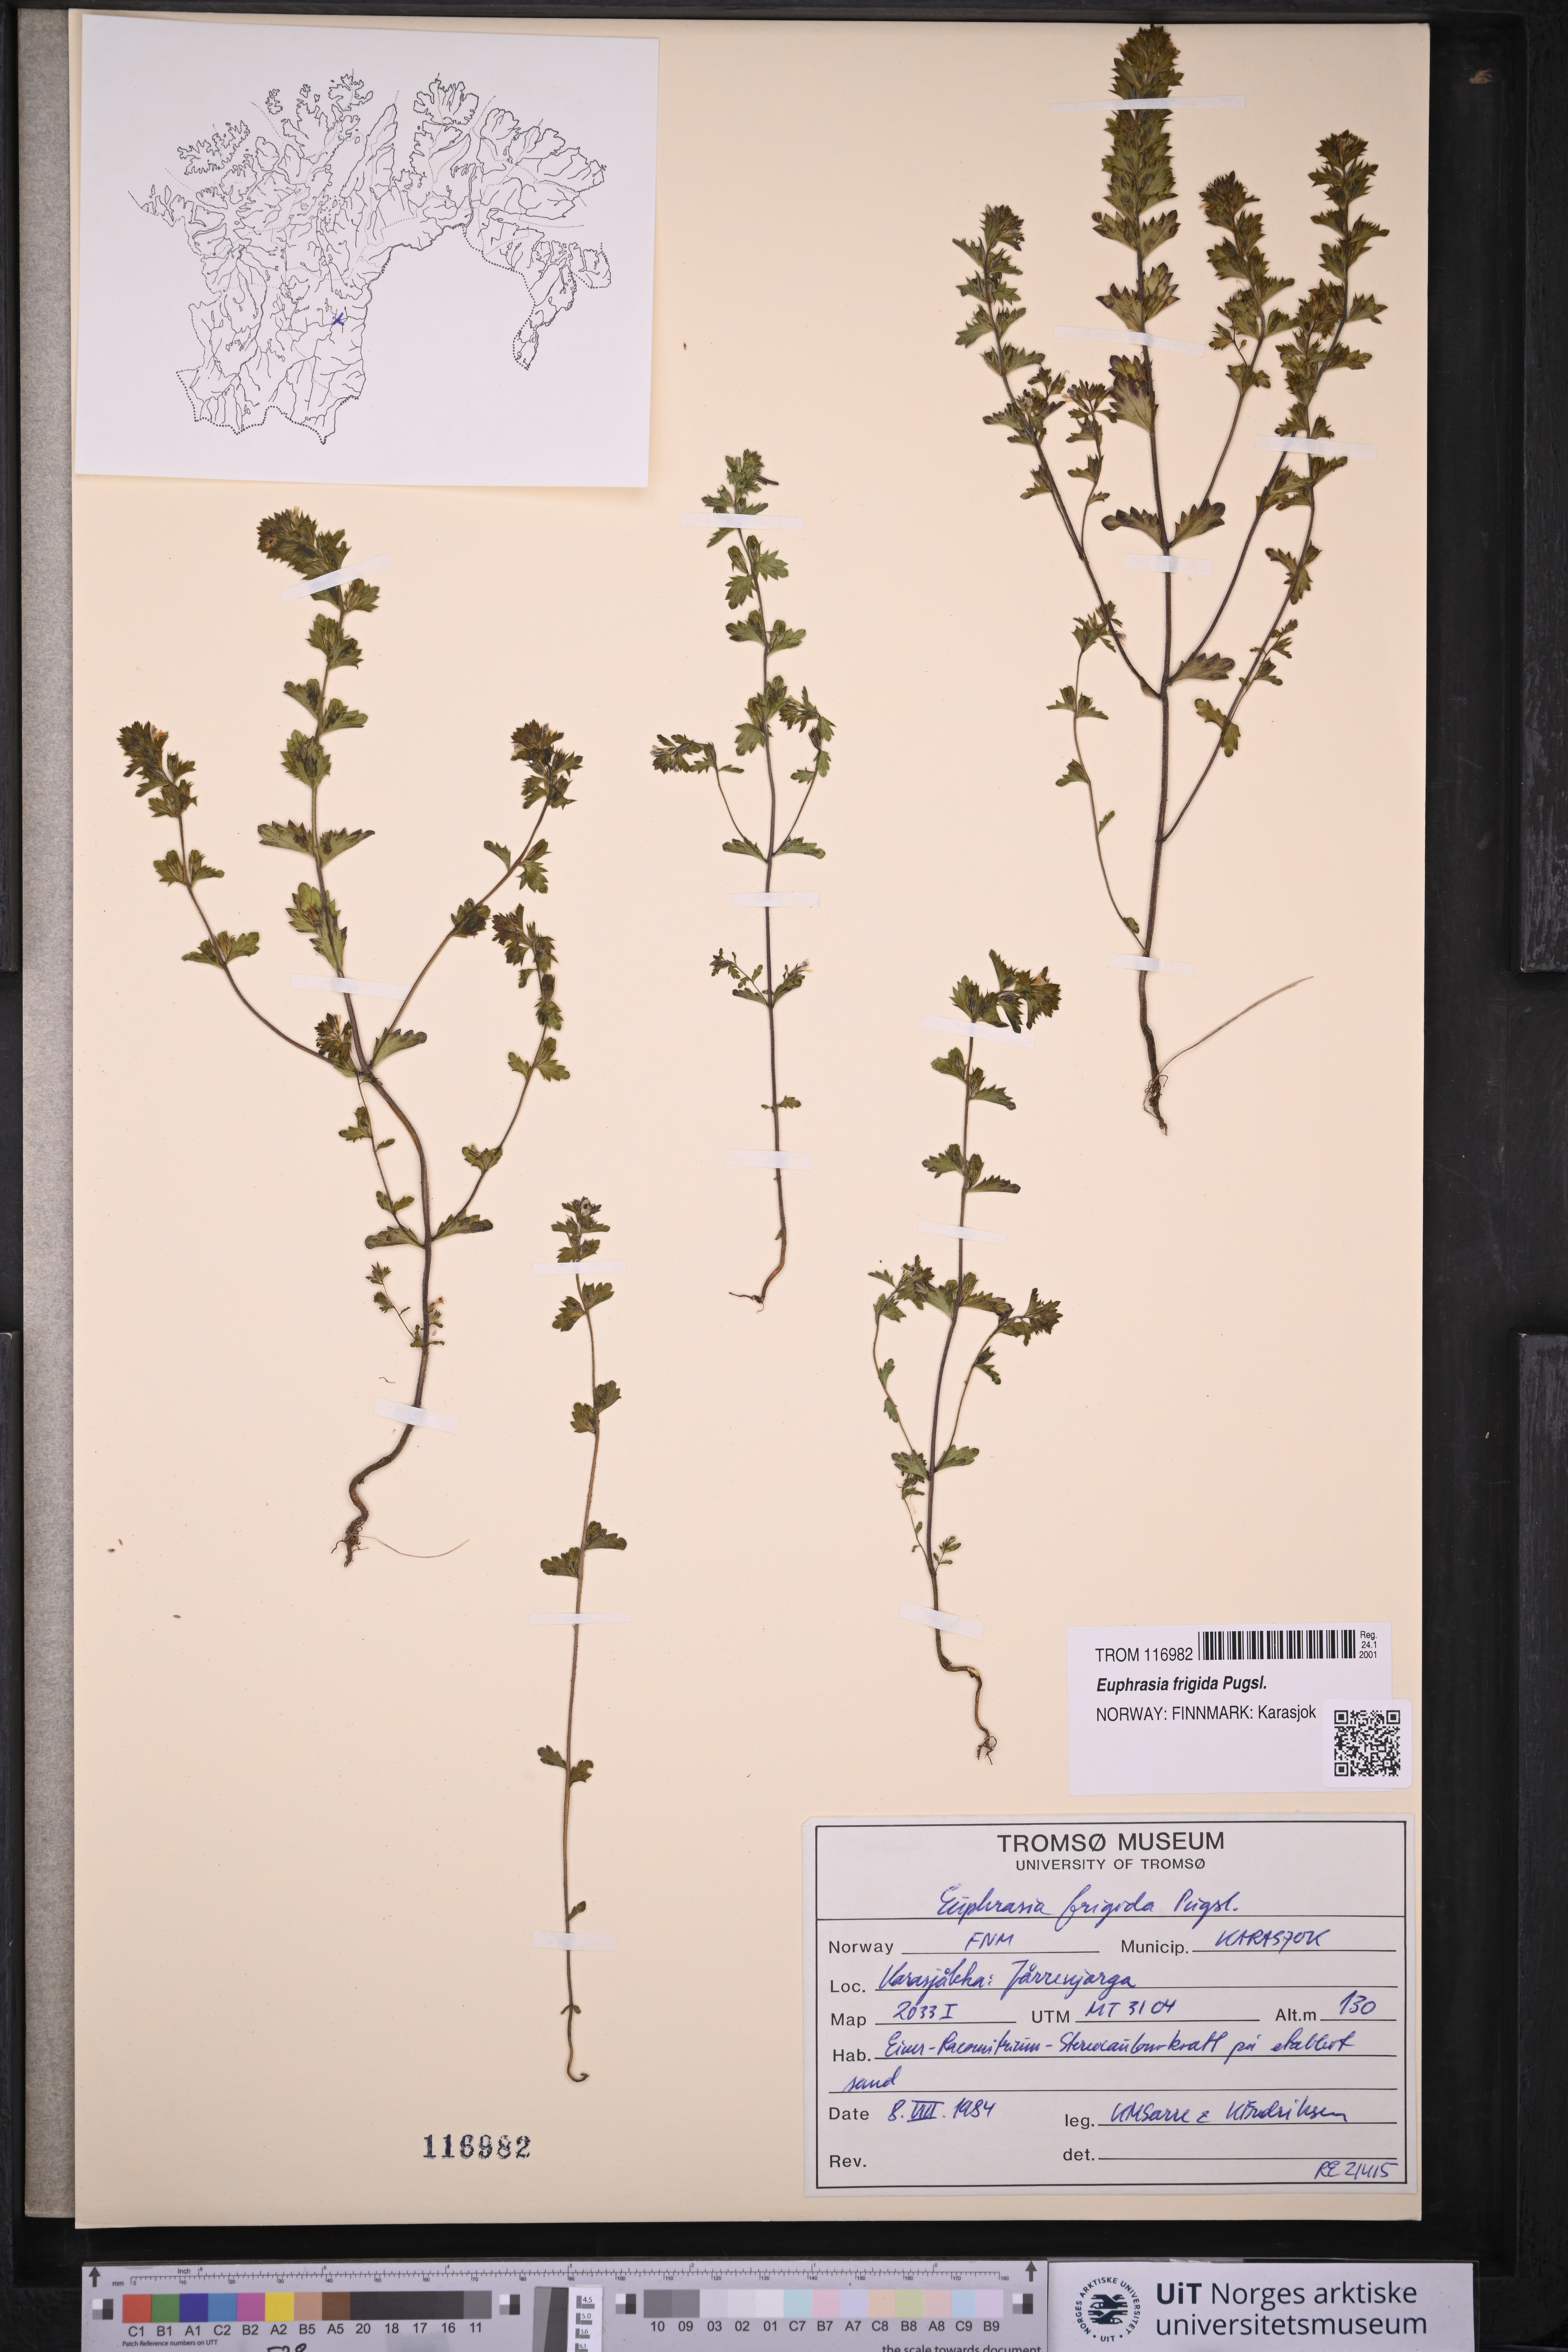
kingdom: Plantae
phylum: Tracheophyta
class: Magnoliopsida
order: Lamiales
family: Orobanchaceae
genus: Euphrasia
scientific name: Euphrasia frigida
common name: An eyebright
